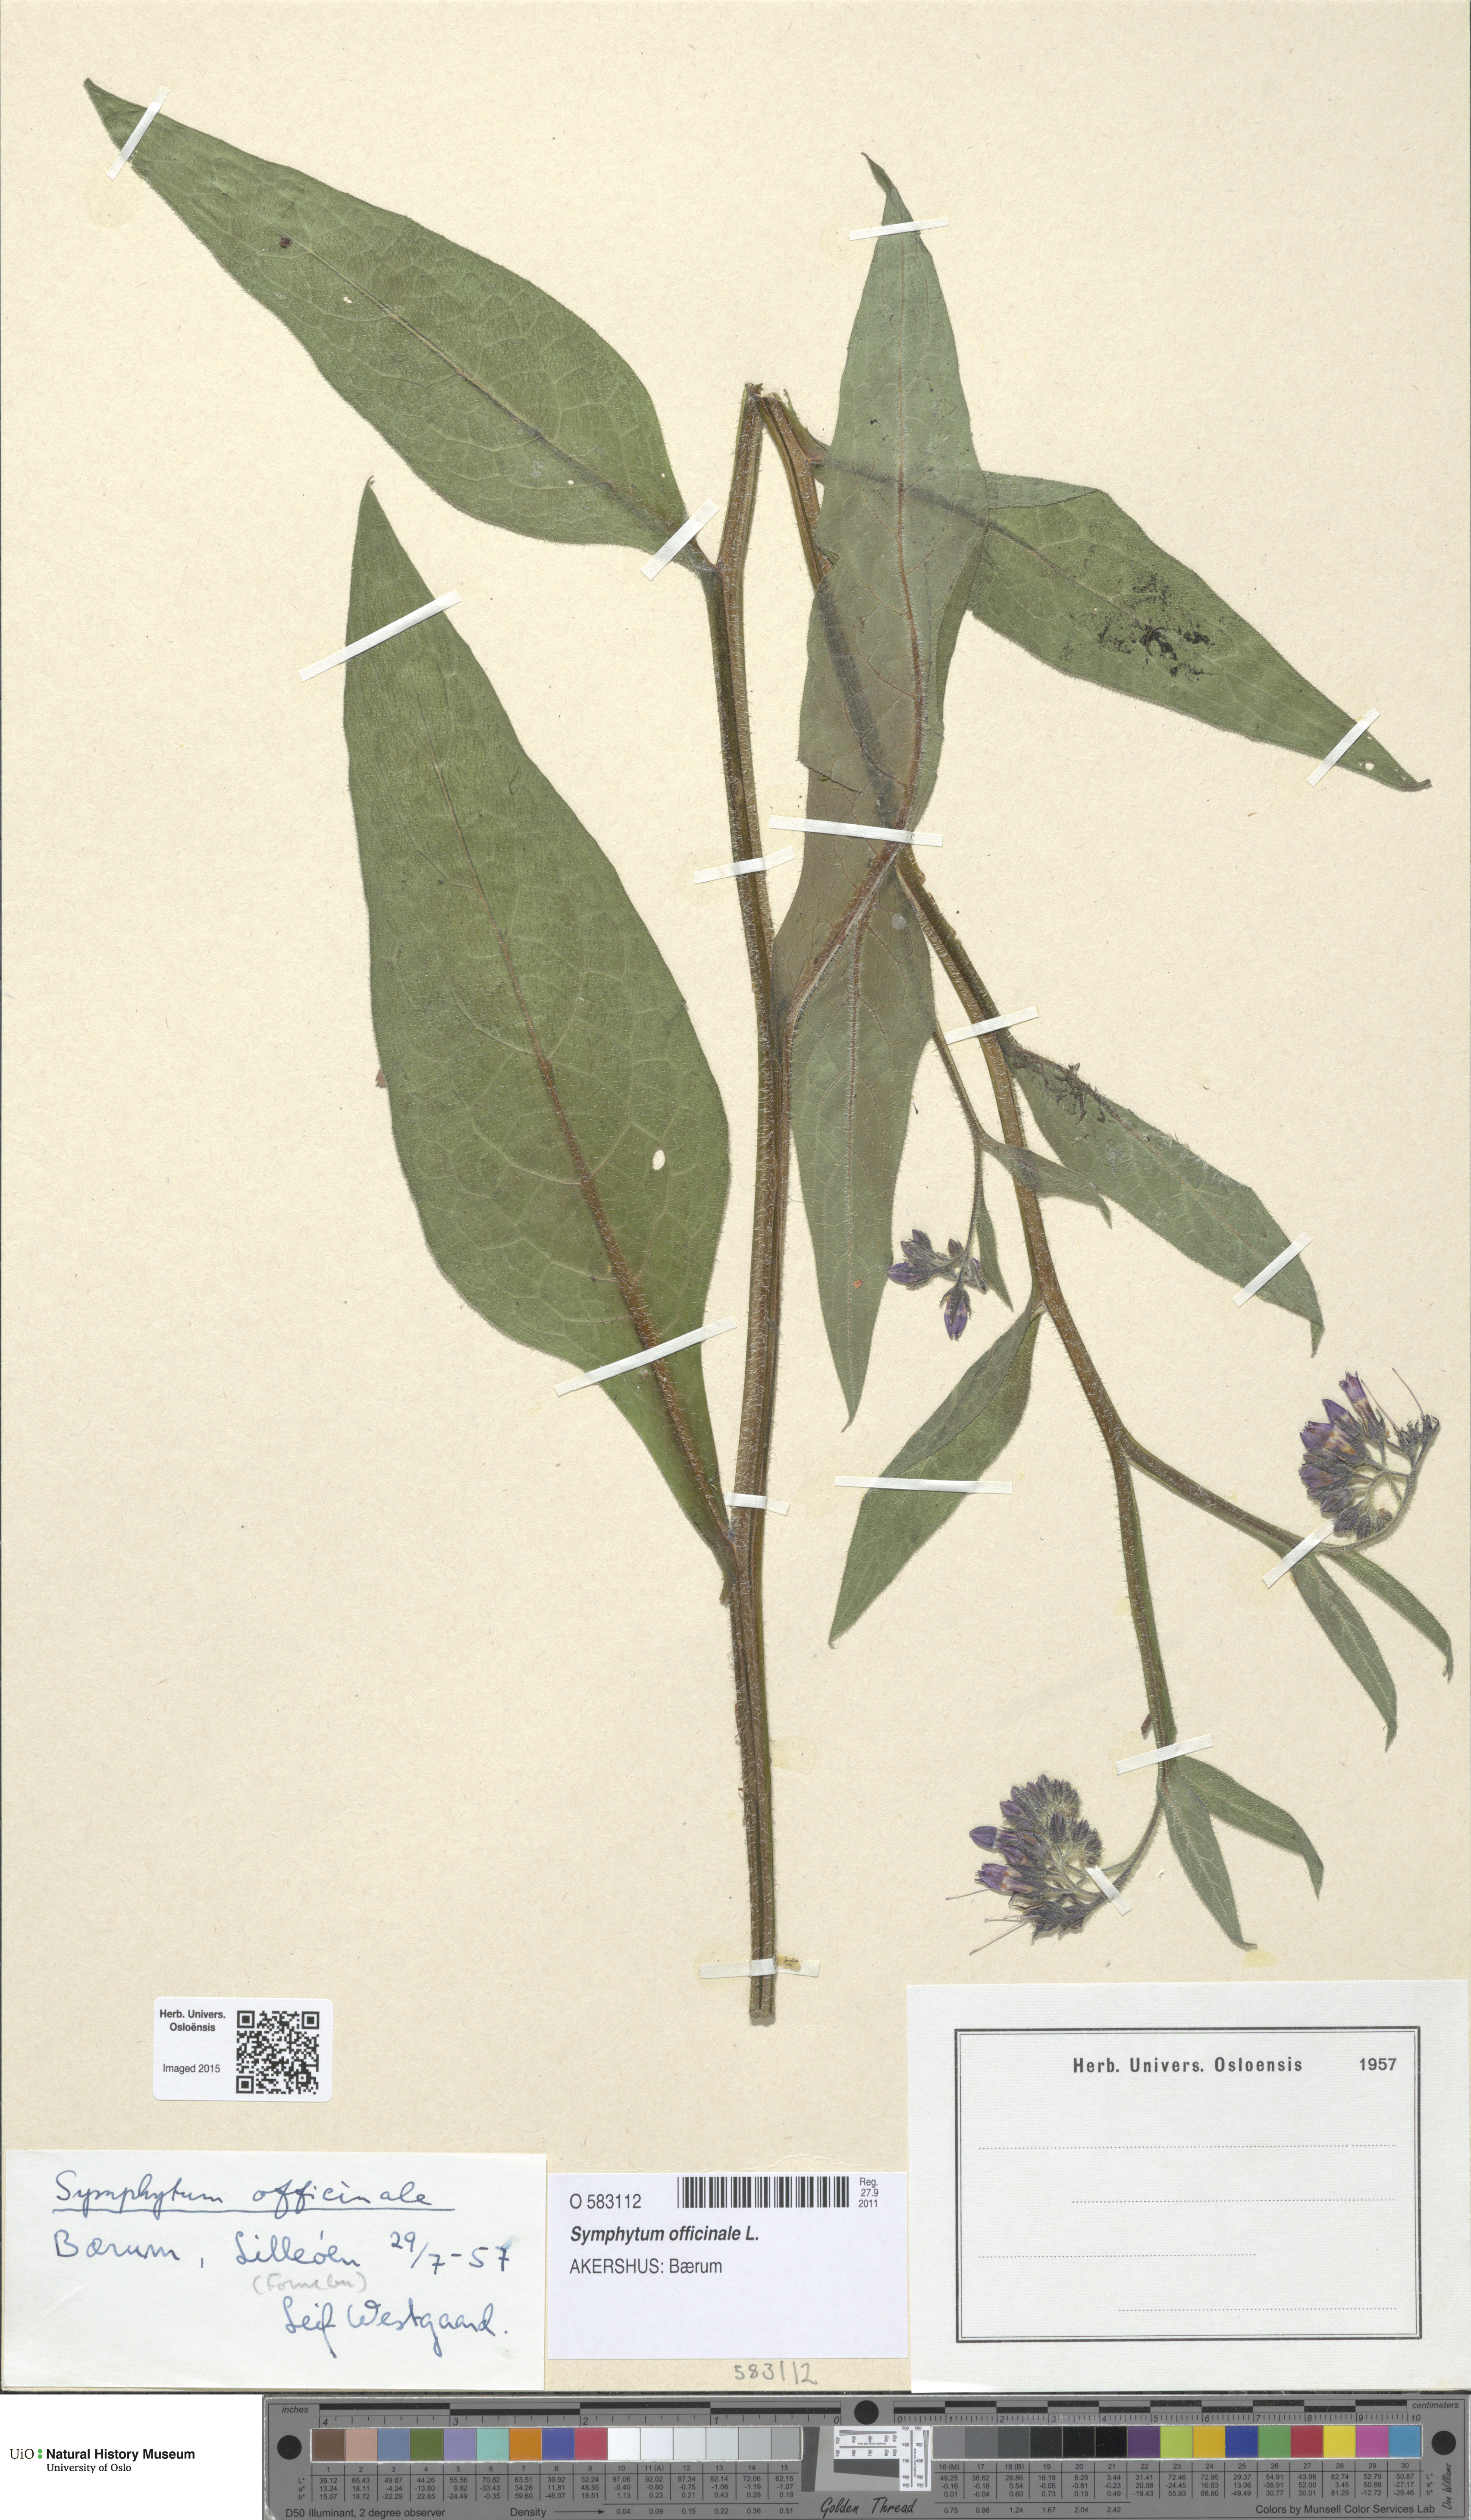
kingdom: Plantae
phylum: Tracheophyta
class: Magnoliopsida
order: Boraginales
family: Boraginaceae
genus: Symphytum
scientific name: Symphytum officinale
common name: Common comfrey
